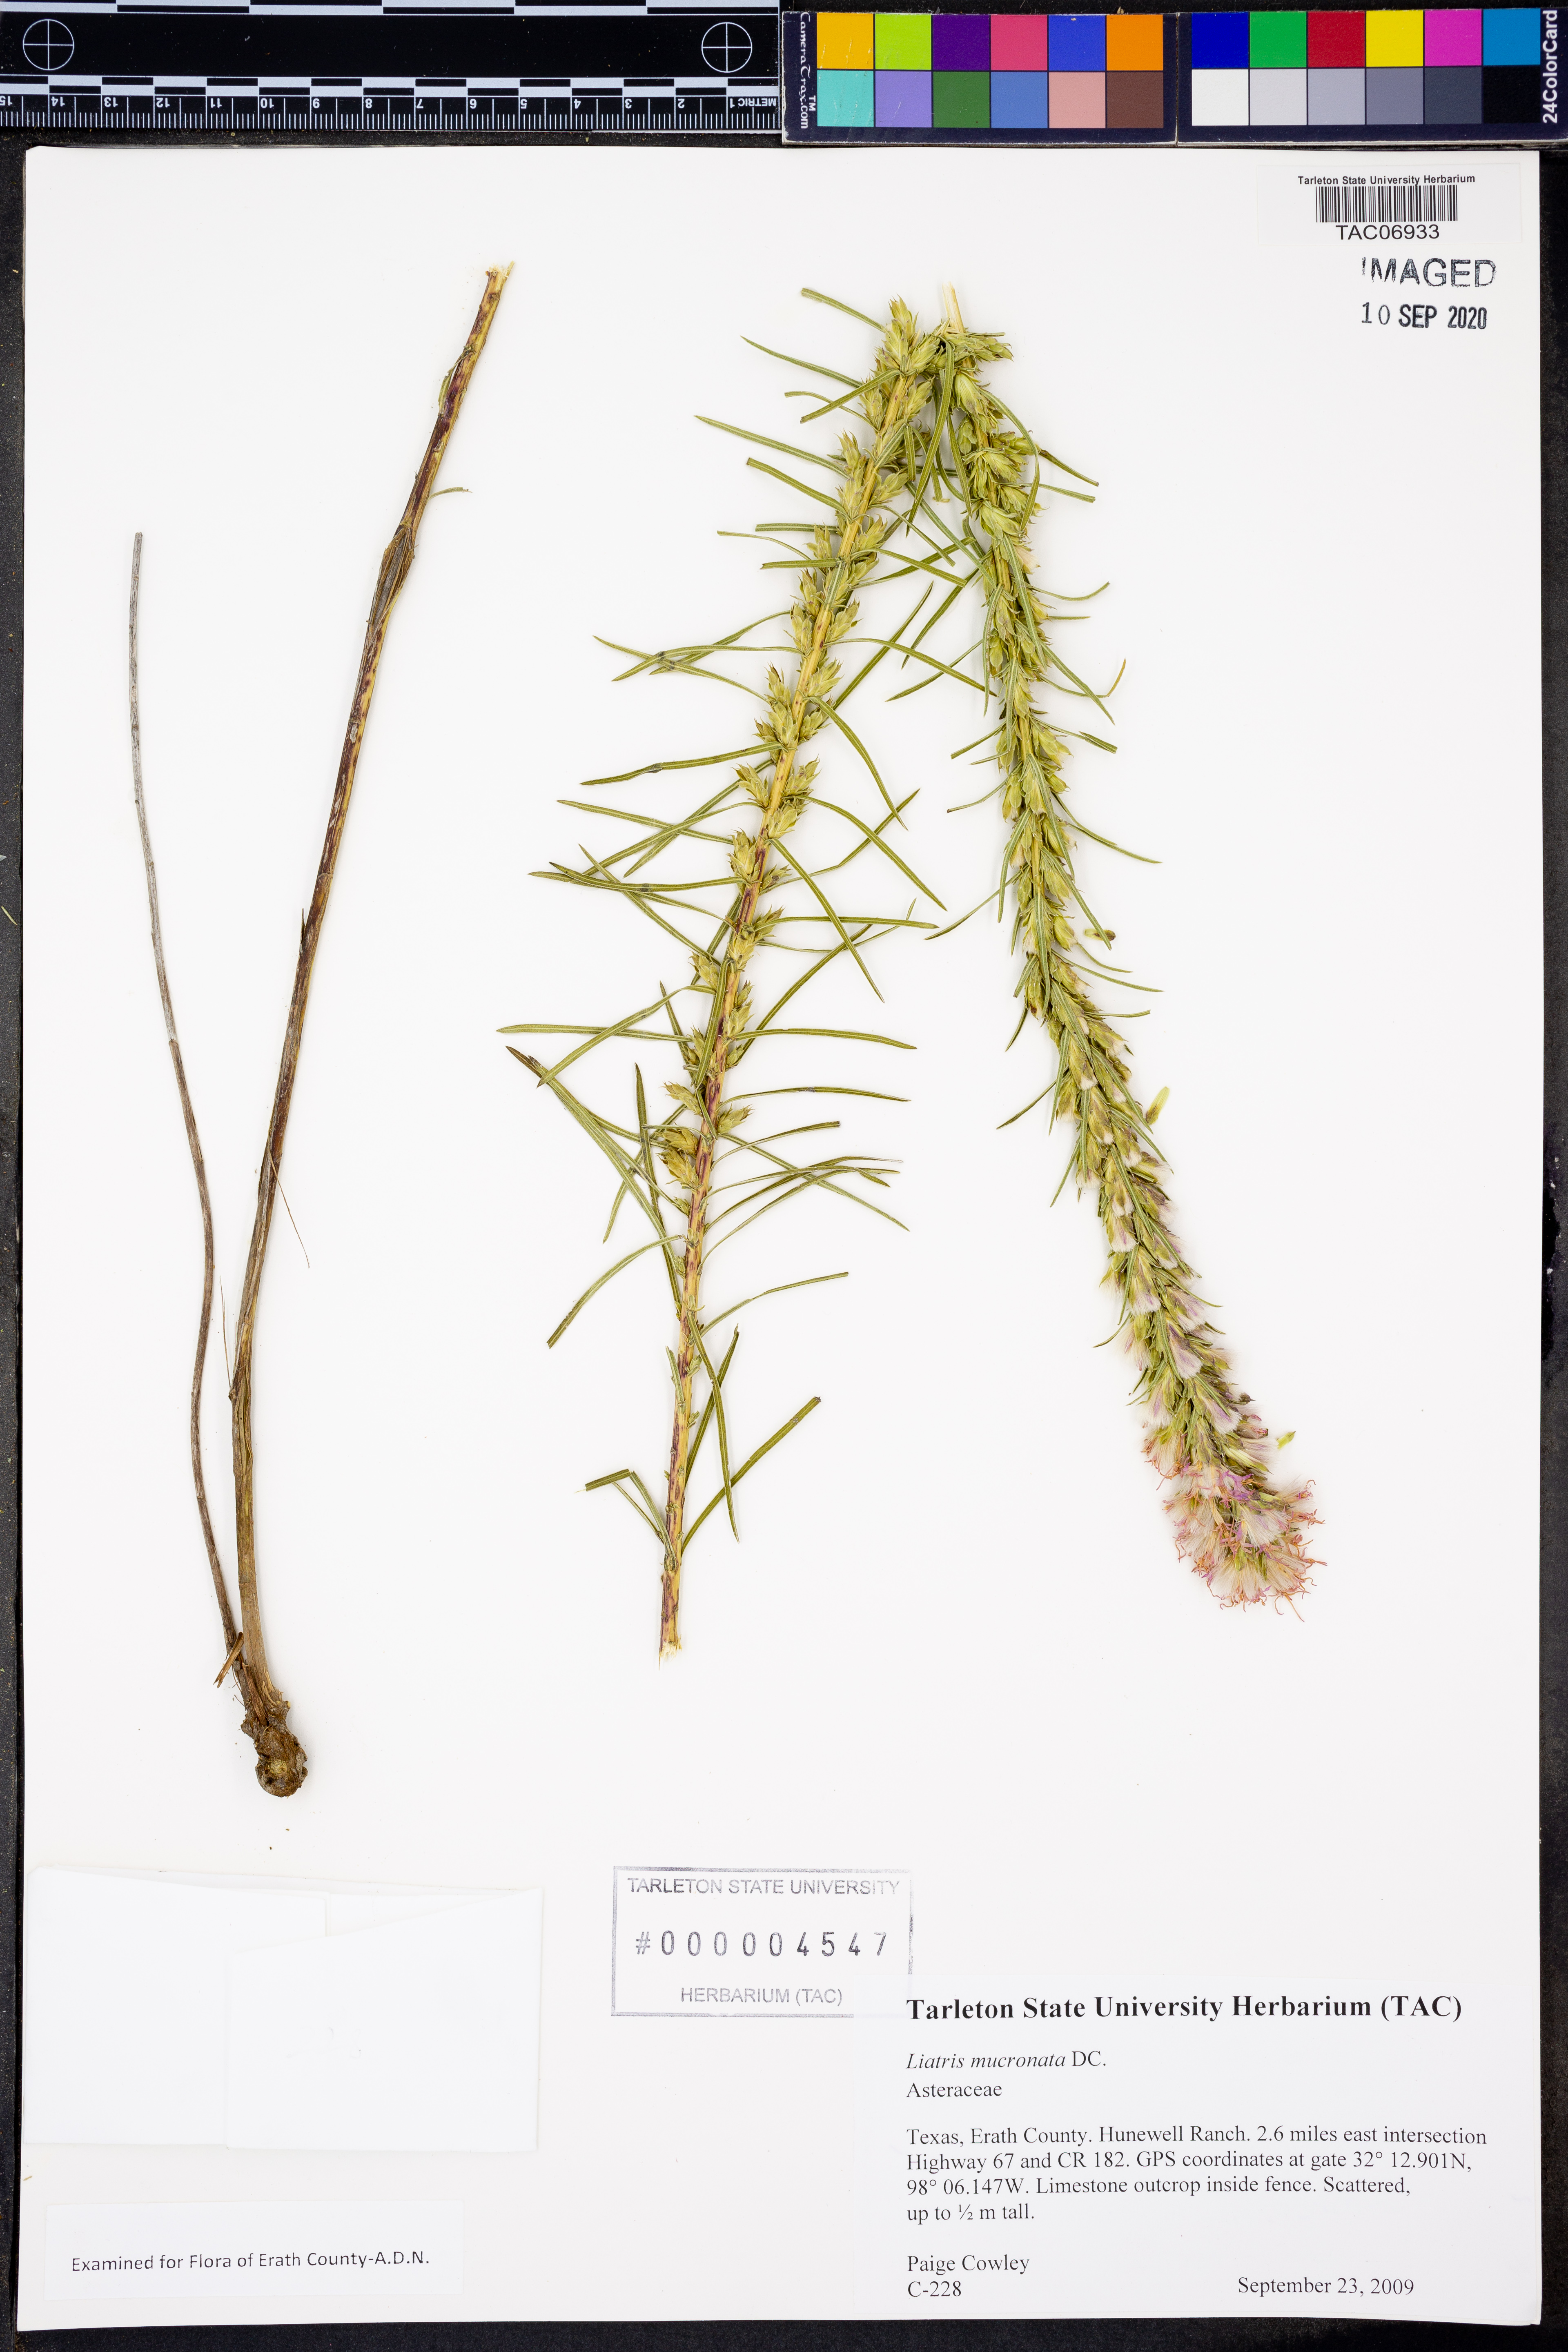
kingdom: Plantae
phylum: Tracheophyta
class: Magnoliopsida
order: Asterales
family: Asteraceae
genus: Liatris
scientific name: Liatris mucronata
